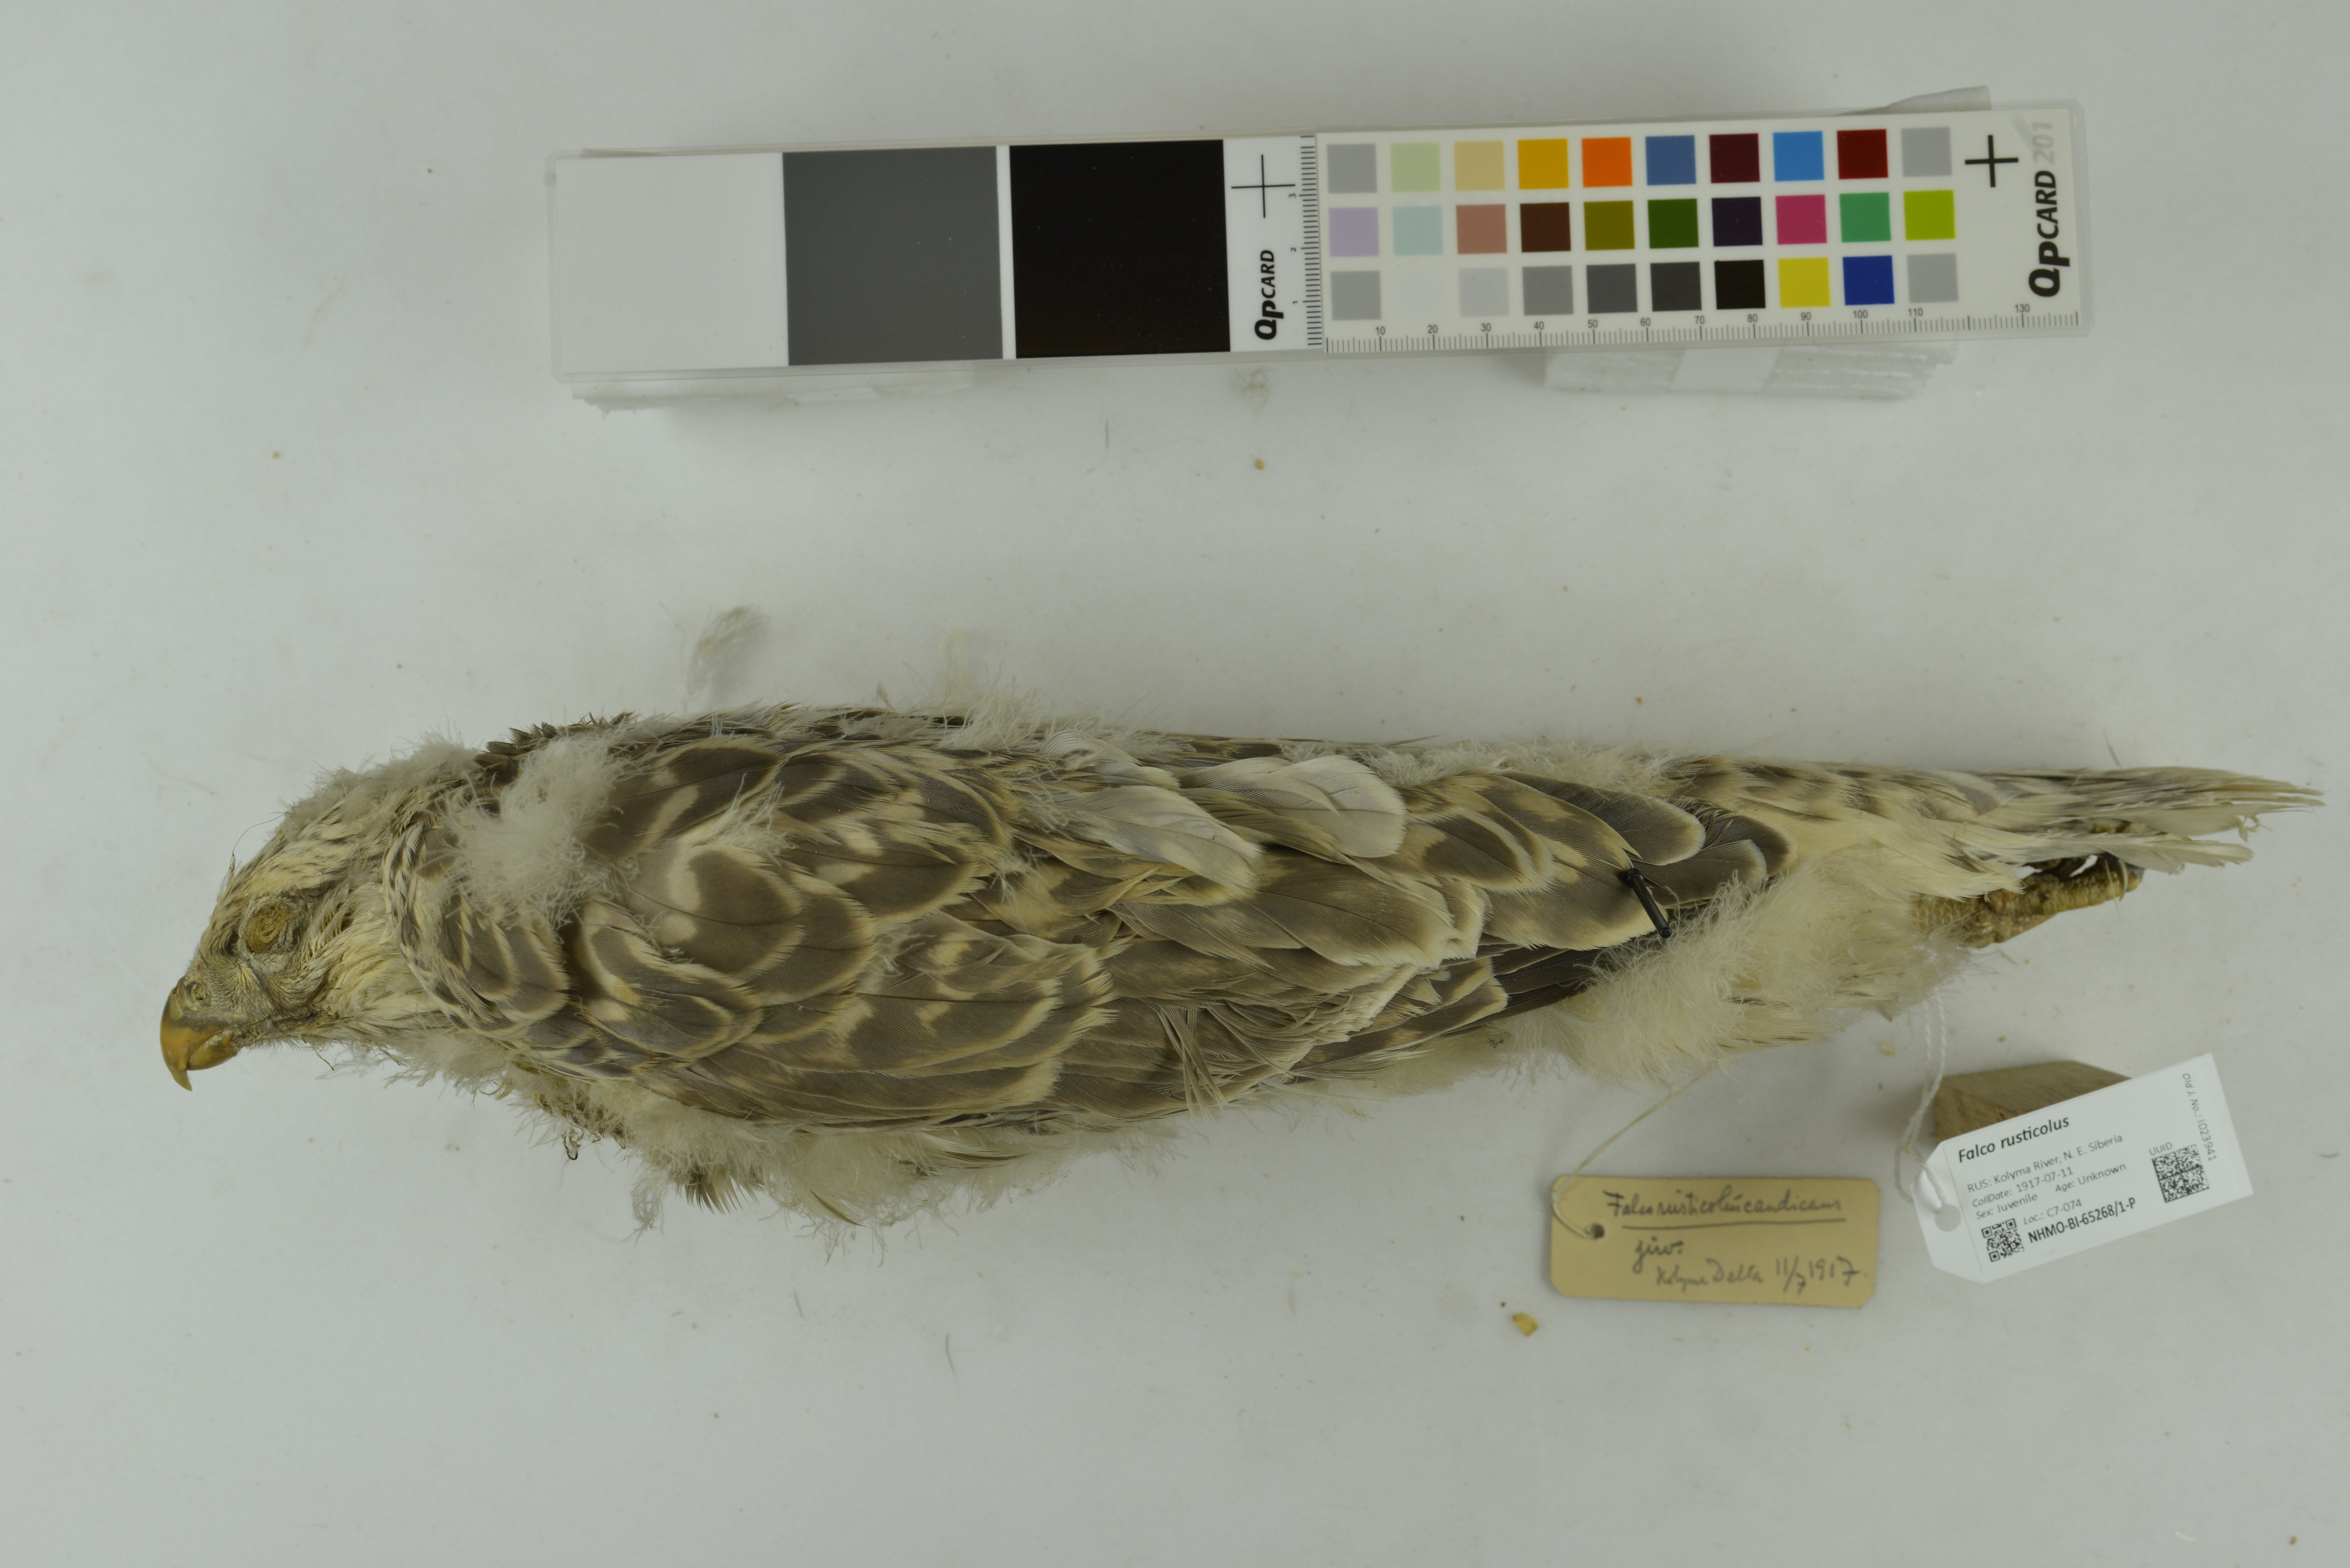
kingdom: Animalia
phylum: Chordata
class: Aves
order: Falconiformes
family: Falconidae
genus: Falco
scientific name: Falco rusticolus
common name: Gyrfalcon
